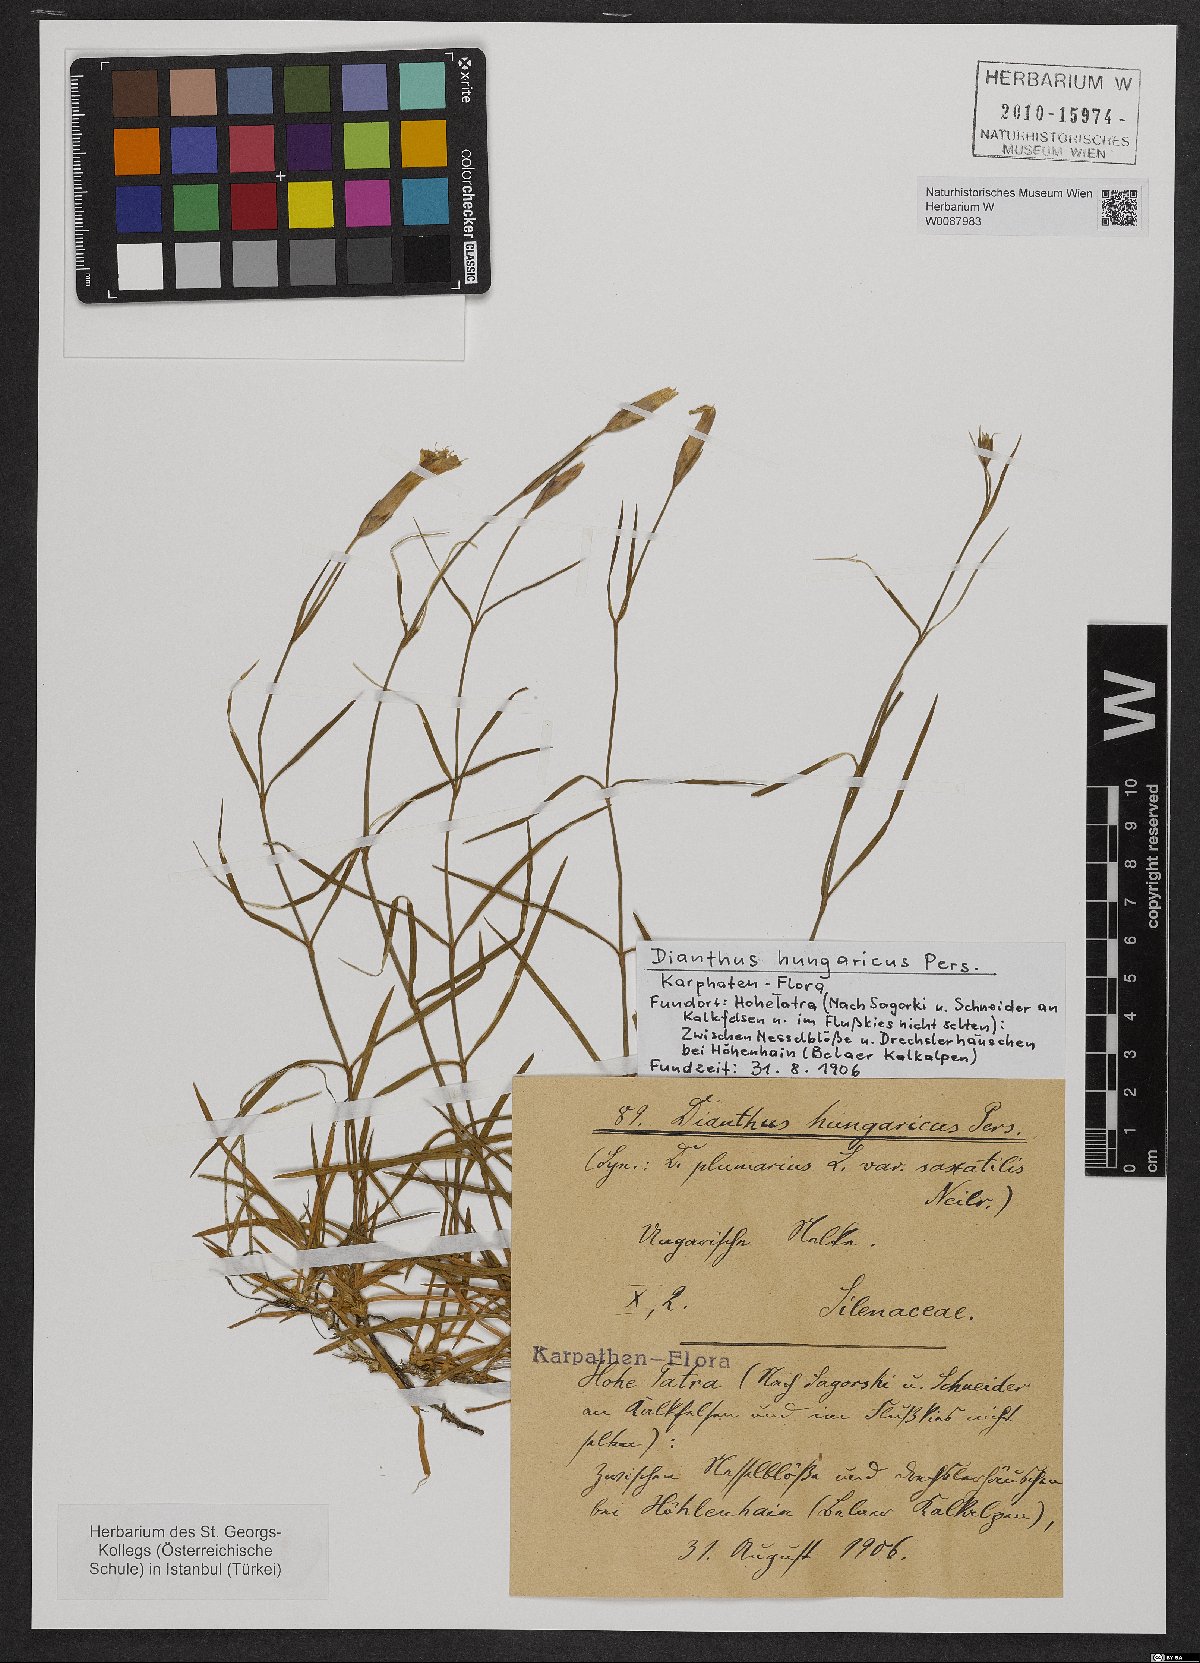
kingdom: Plantae
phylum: Tracheophyta
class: Magnoliopsida
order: Caryophyllales
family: Caryophyllaceae
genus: Dianthus
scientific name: Dianthus plumarius
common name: Pink
